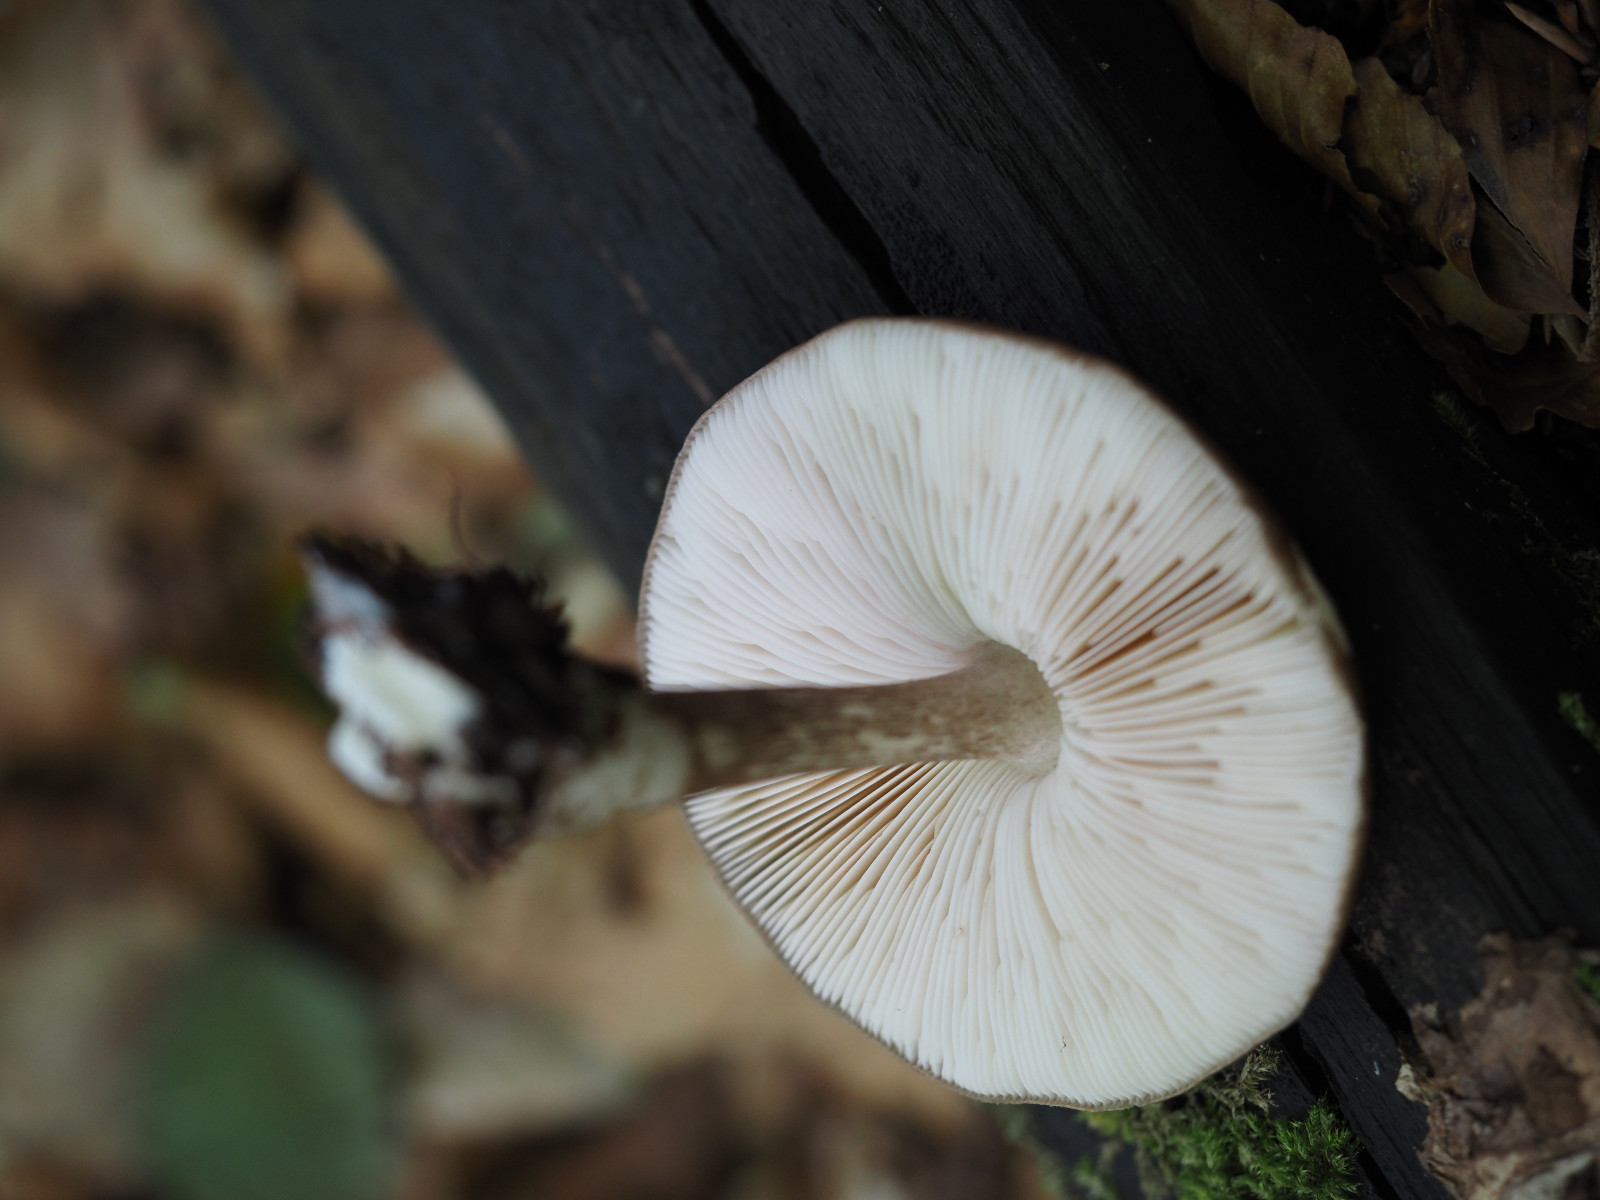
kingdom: Fungi
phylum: Basidiomycota
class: Agaricomycetes
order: Agaricales
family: Pluteaceae
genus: Pluteus
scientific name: Pluteus cervinus
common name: sodfarvet skærmhat
